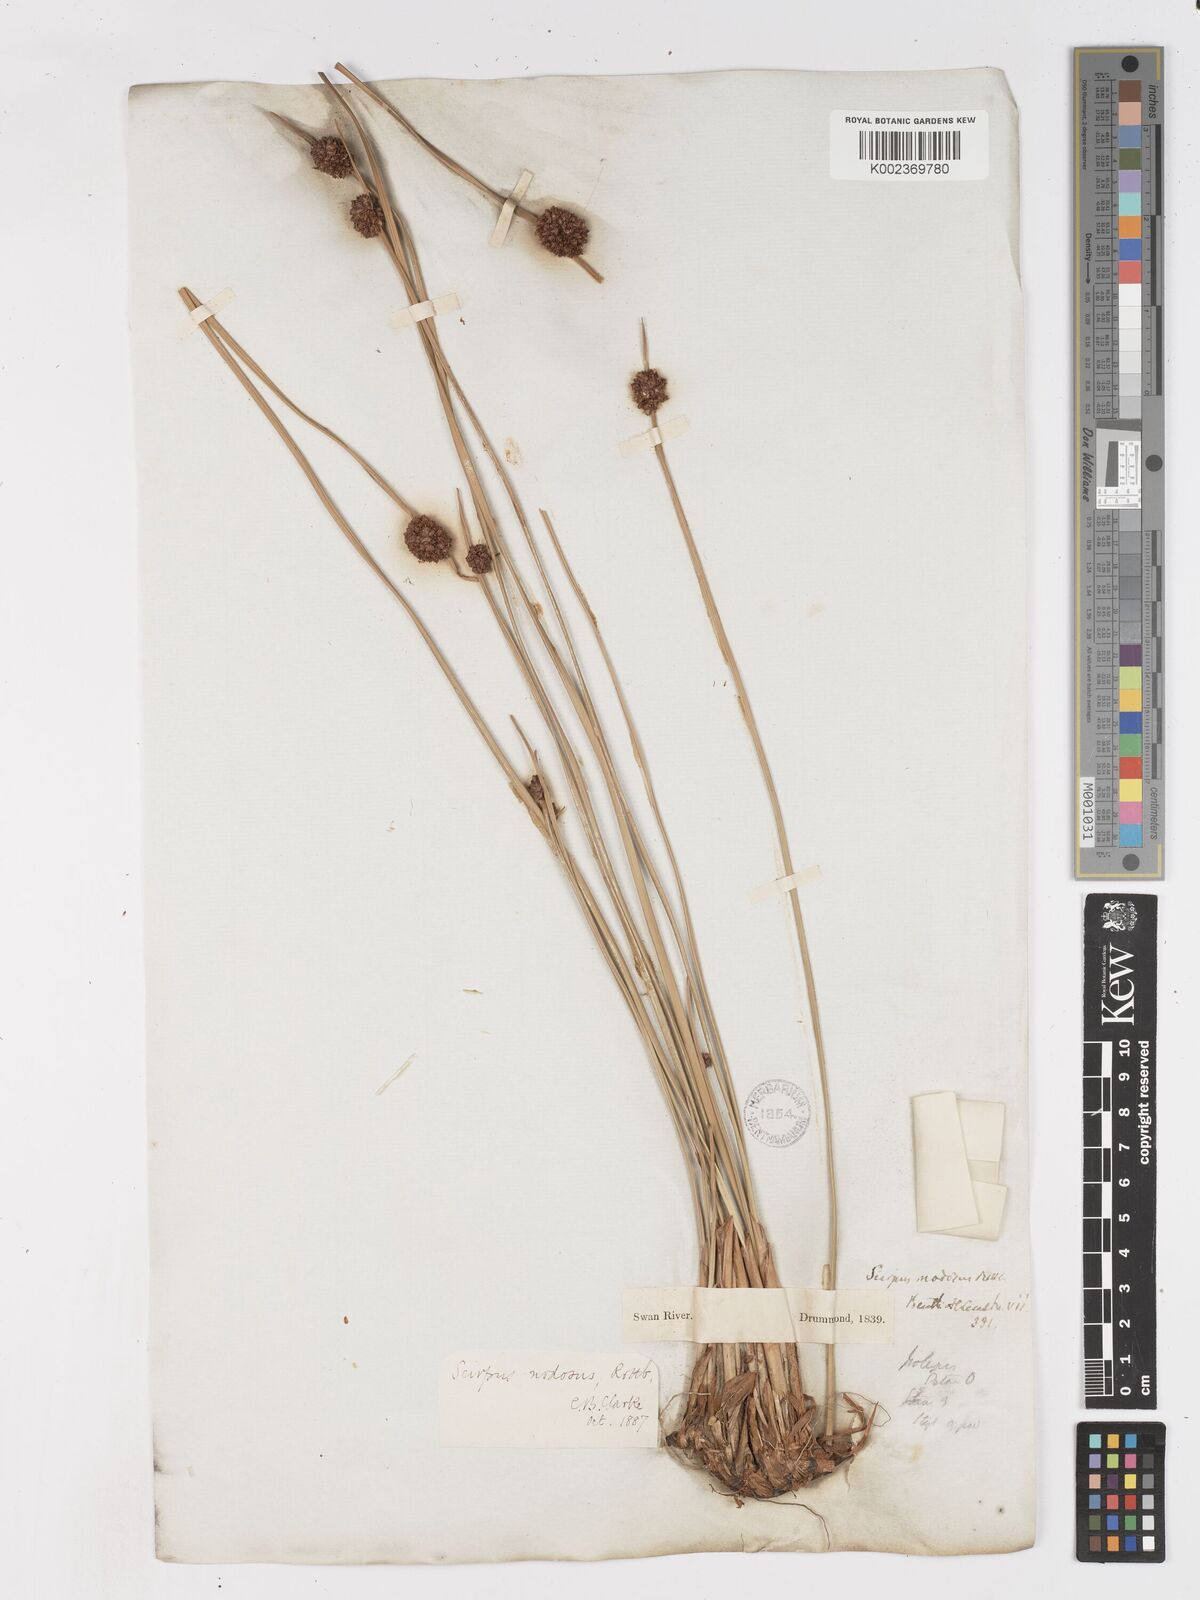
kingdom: Plantae
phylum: Tracheophyta
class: Liliopsida
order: Poales
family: Cyperaceae
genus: Ficinia
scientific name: Ficinia nodosa
